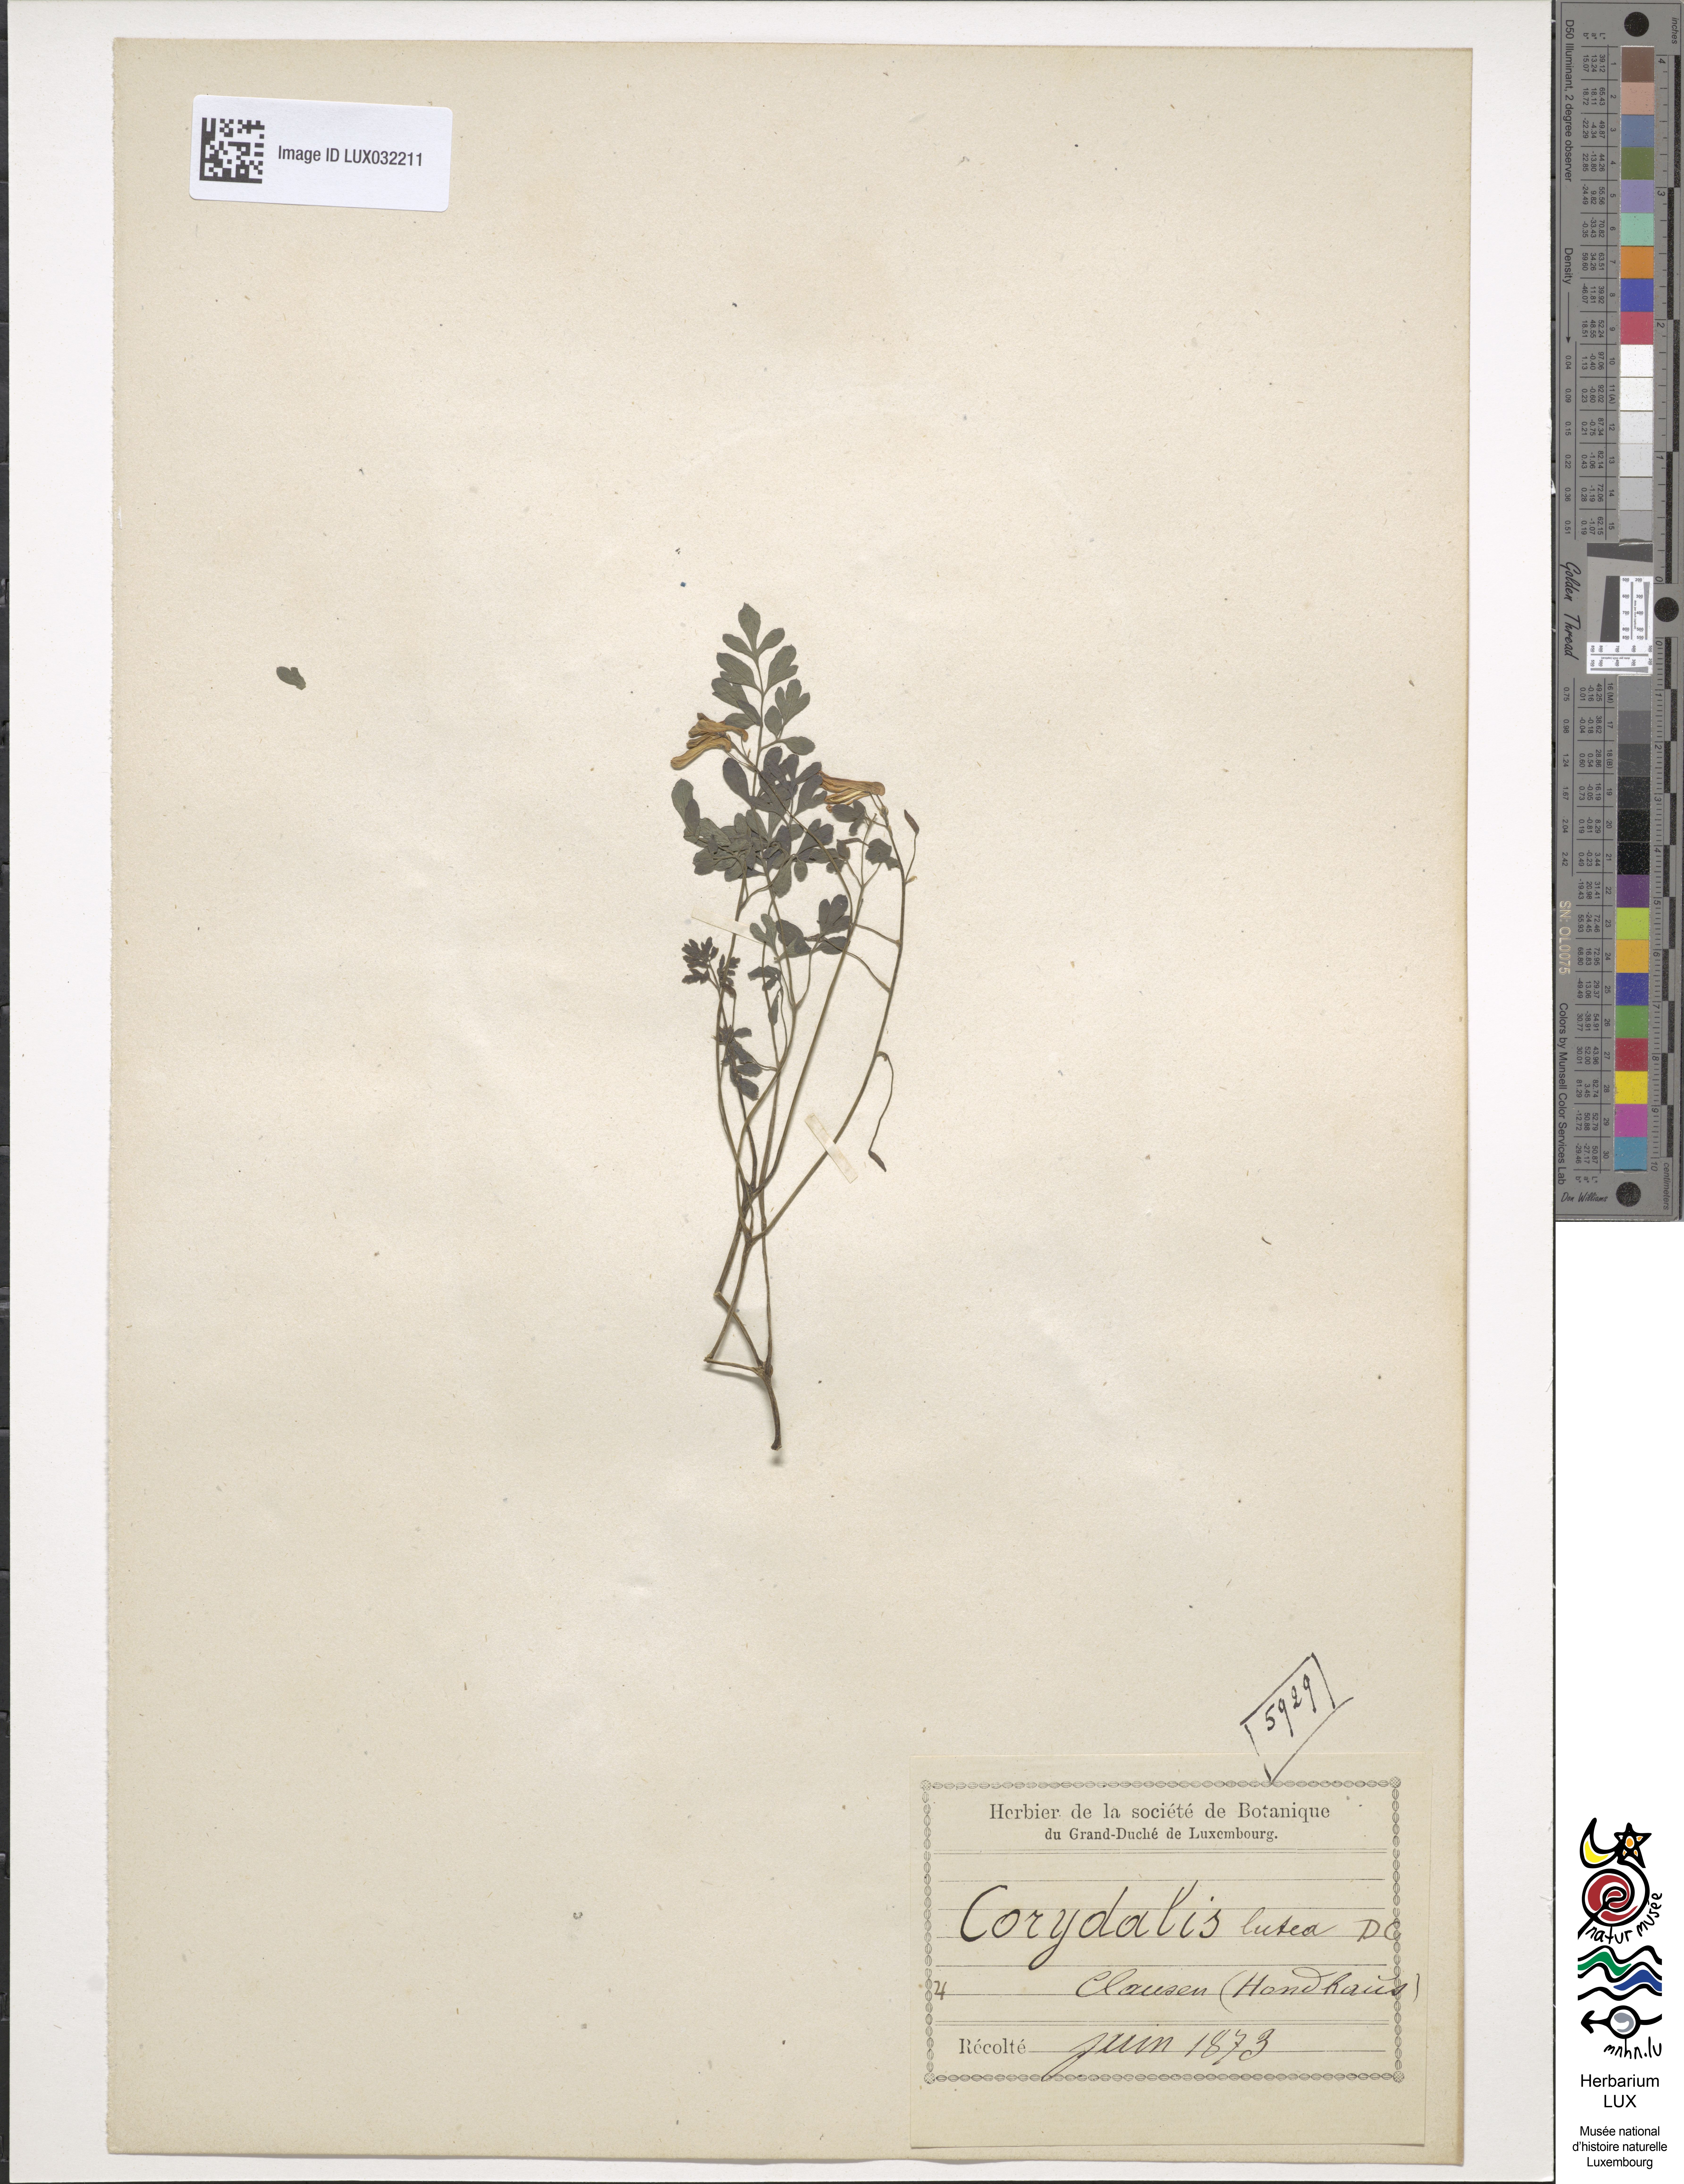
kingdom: Plantae
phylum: Tracheophyta
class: Magnoliopsida
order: Ranunculales
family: Papaveraceae
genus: Pseudofumaria
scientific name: Pseudofumaria lutea
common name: Yellow corydalis
